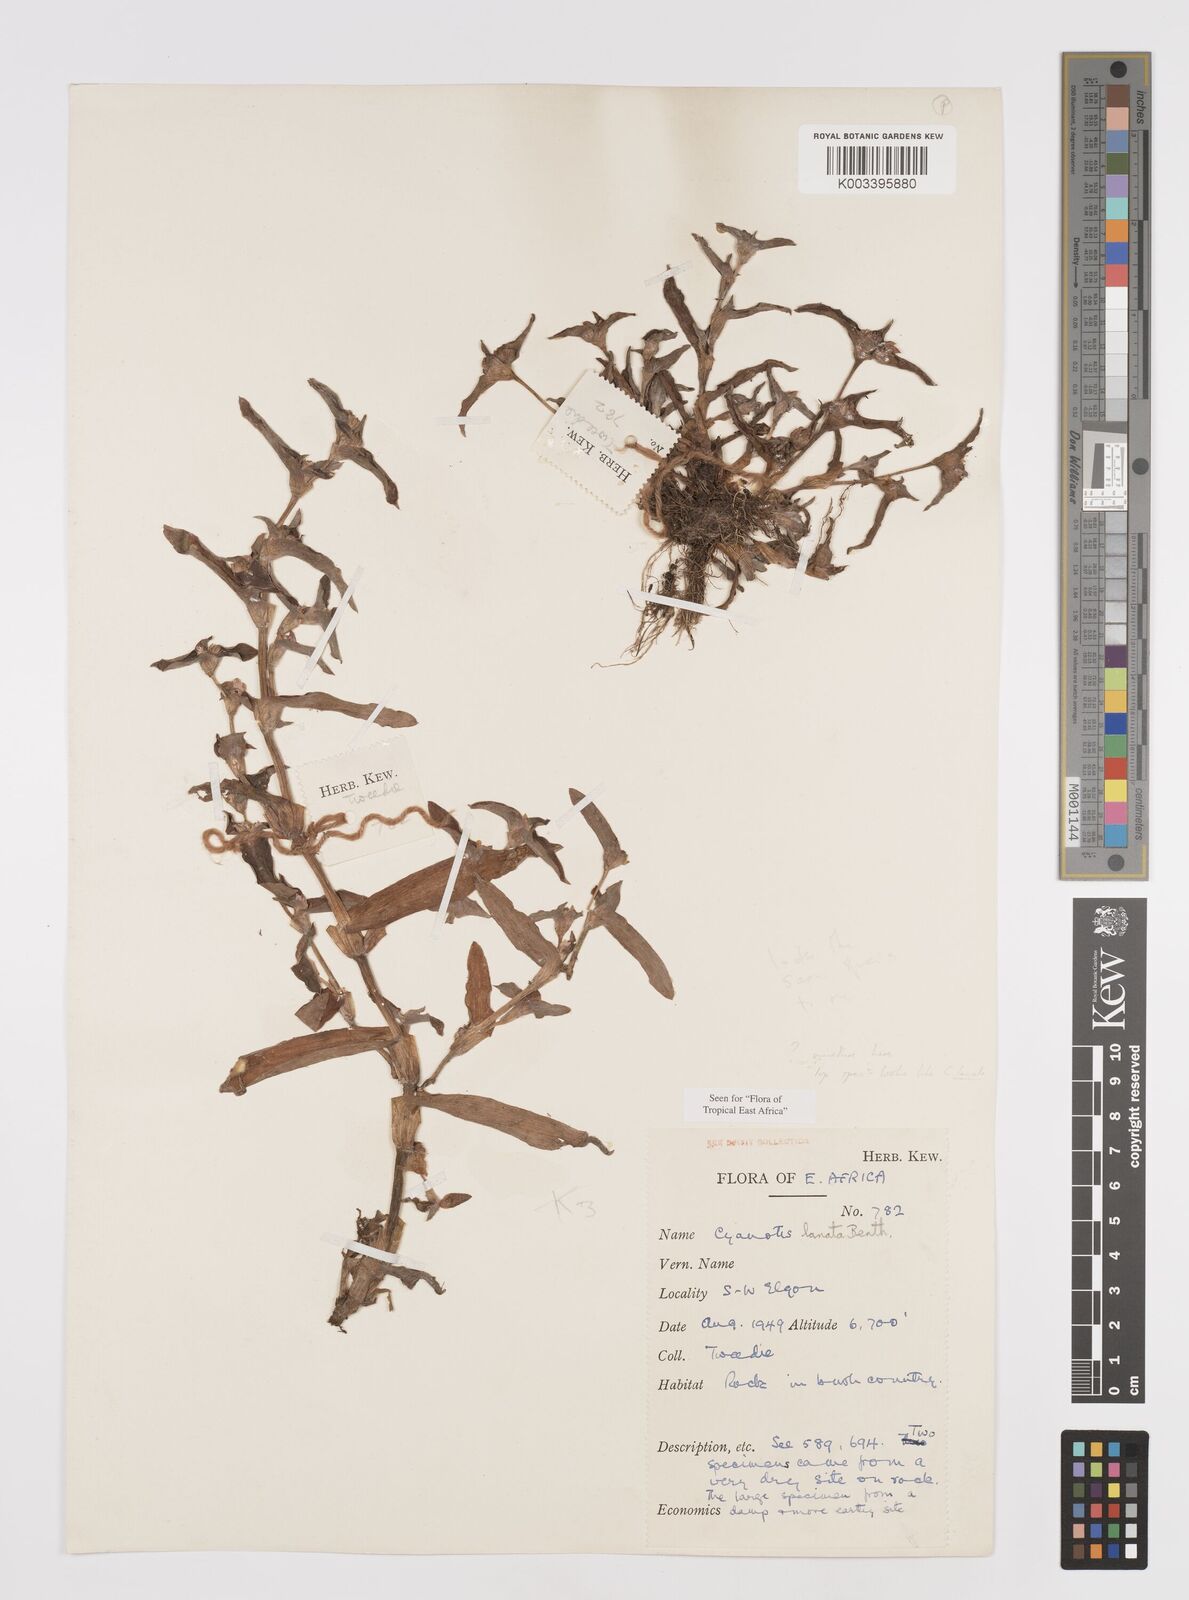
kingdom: Plantae
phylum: Tracheophyta
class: Liliopsida
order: Commelinales
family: Commelinaceae
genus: Cyanotis
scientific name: Cyanotis lanata
